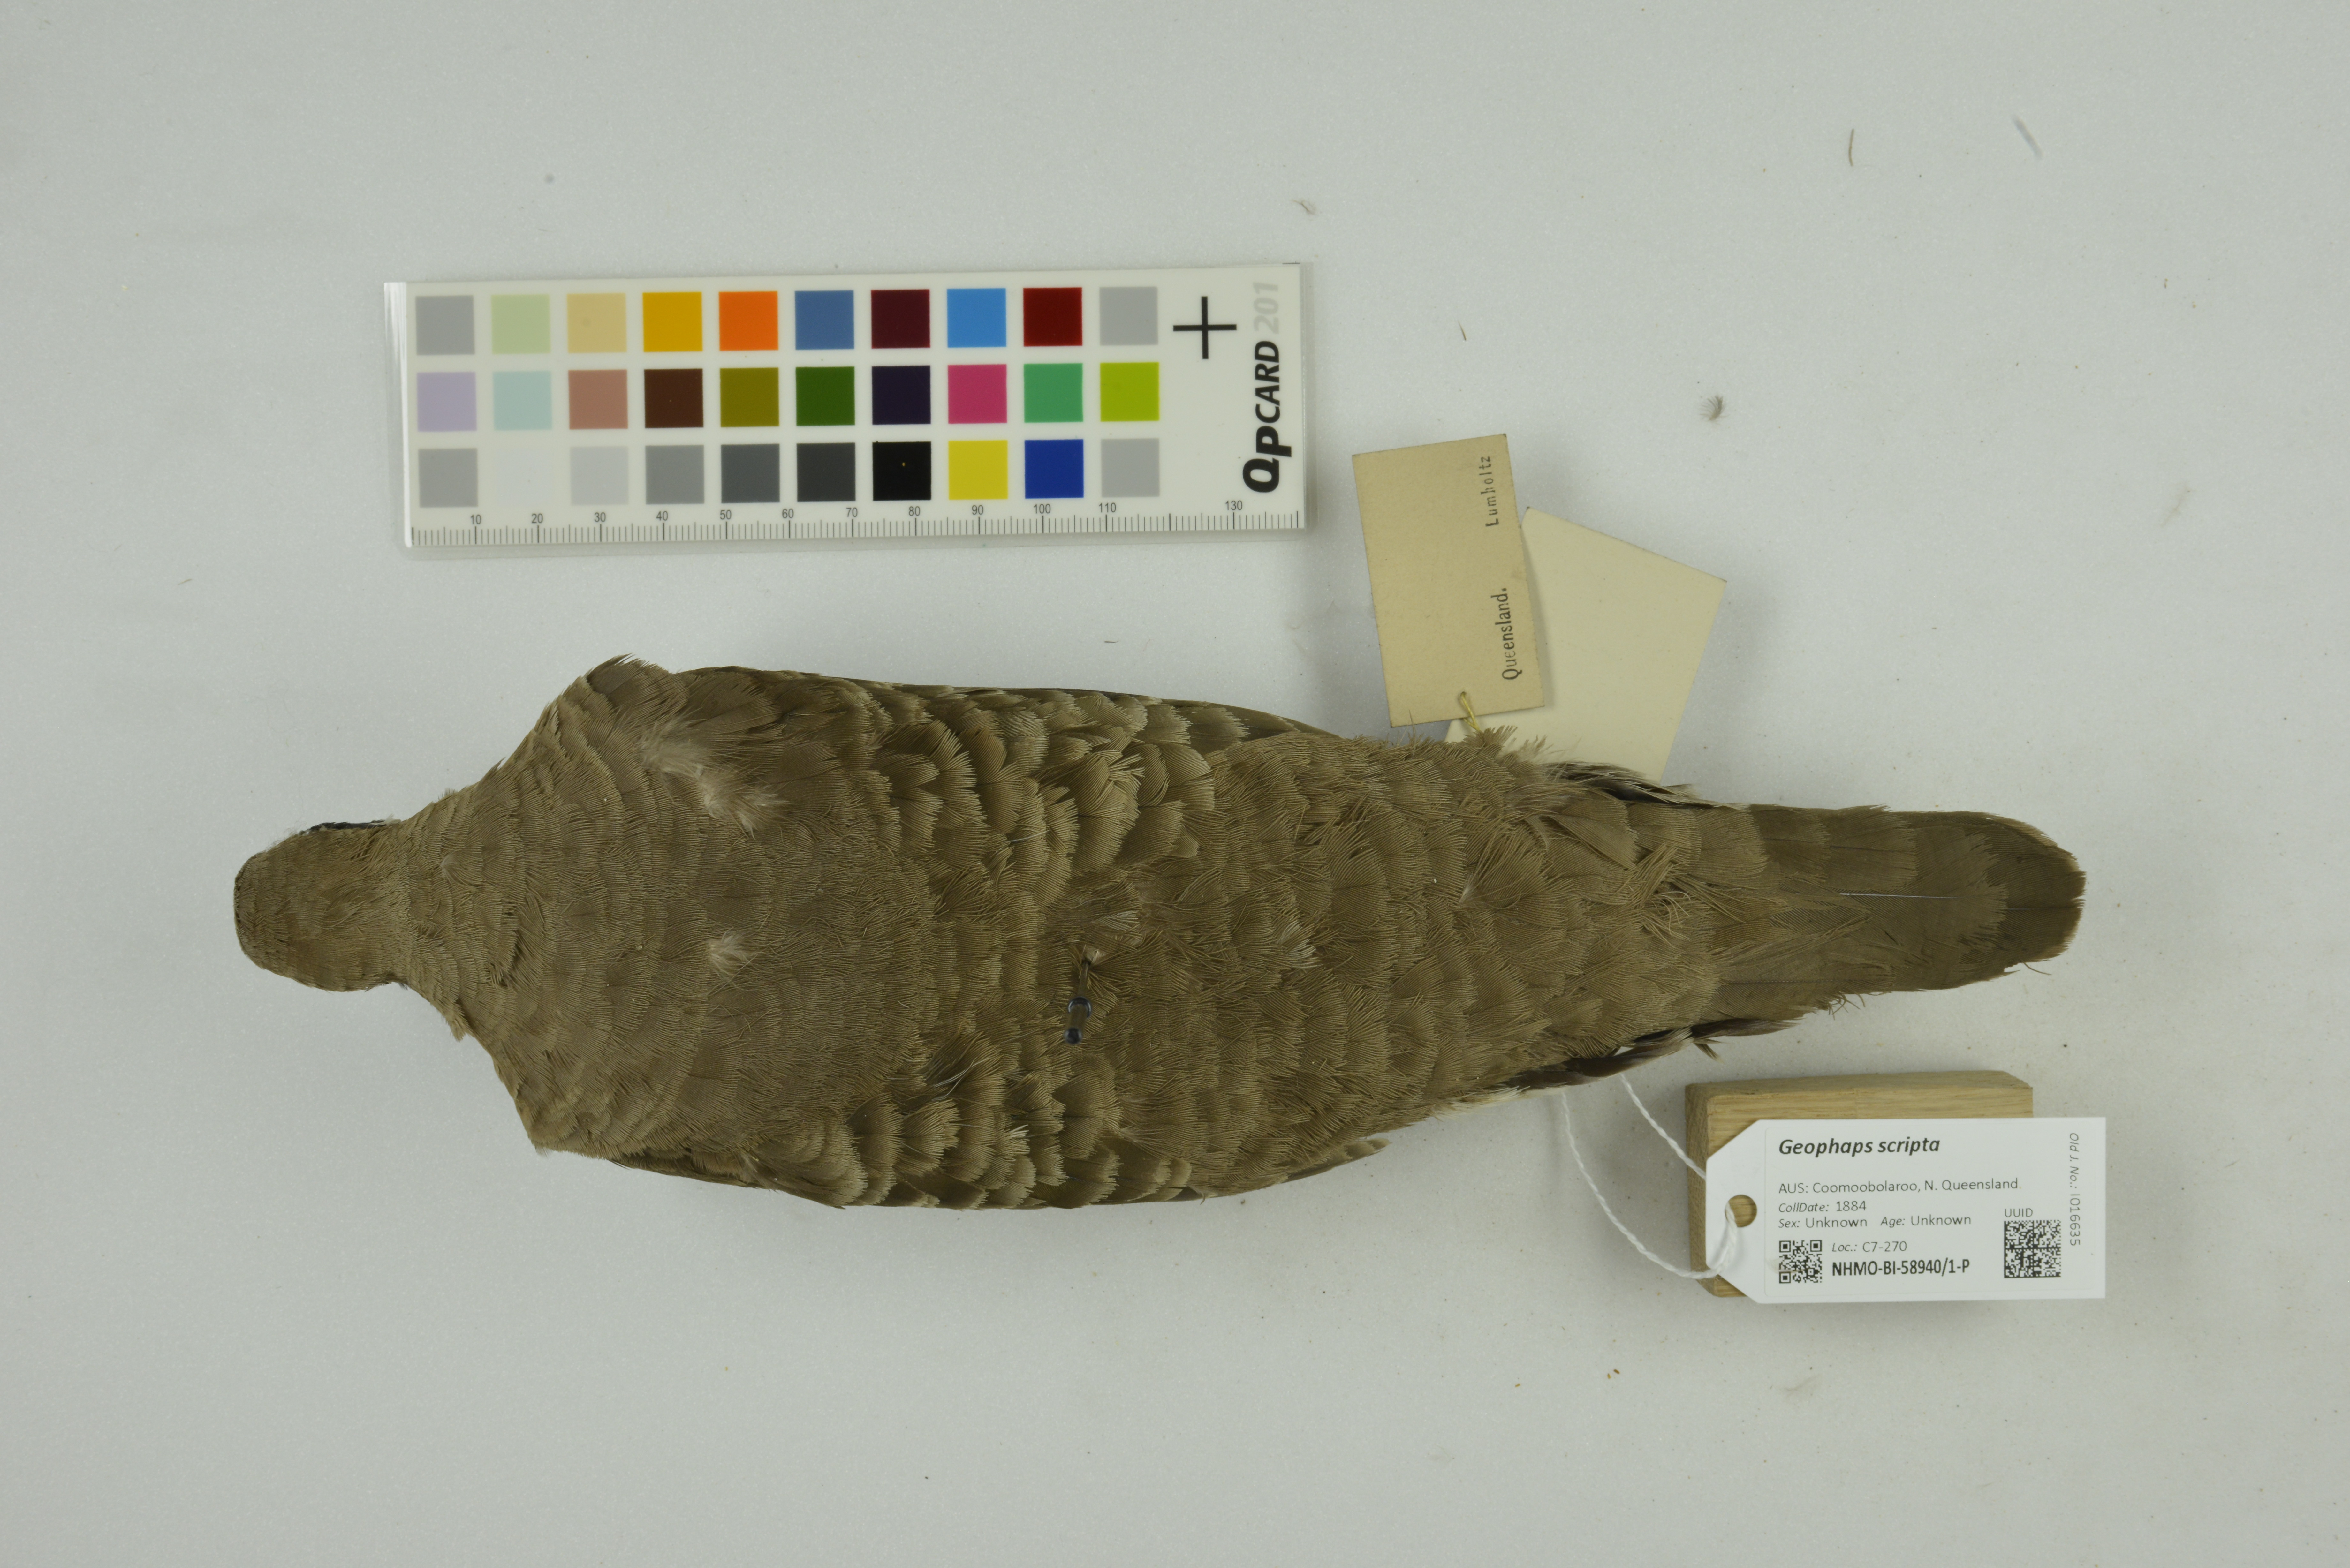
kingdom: Animalia
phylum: Chordata
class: Aves
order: Columbiformes
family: Columbidae
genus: Geophaps
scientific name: Geophaps scripta
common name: Squatter pigeon
